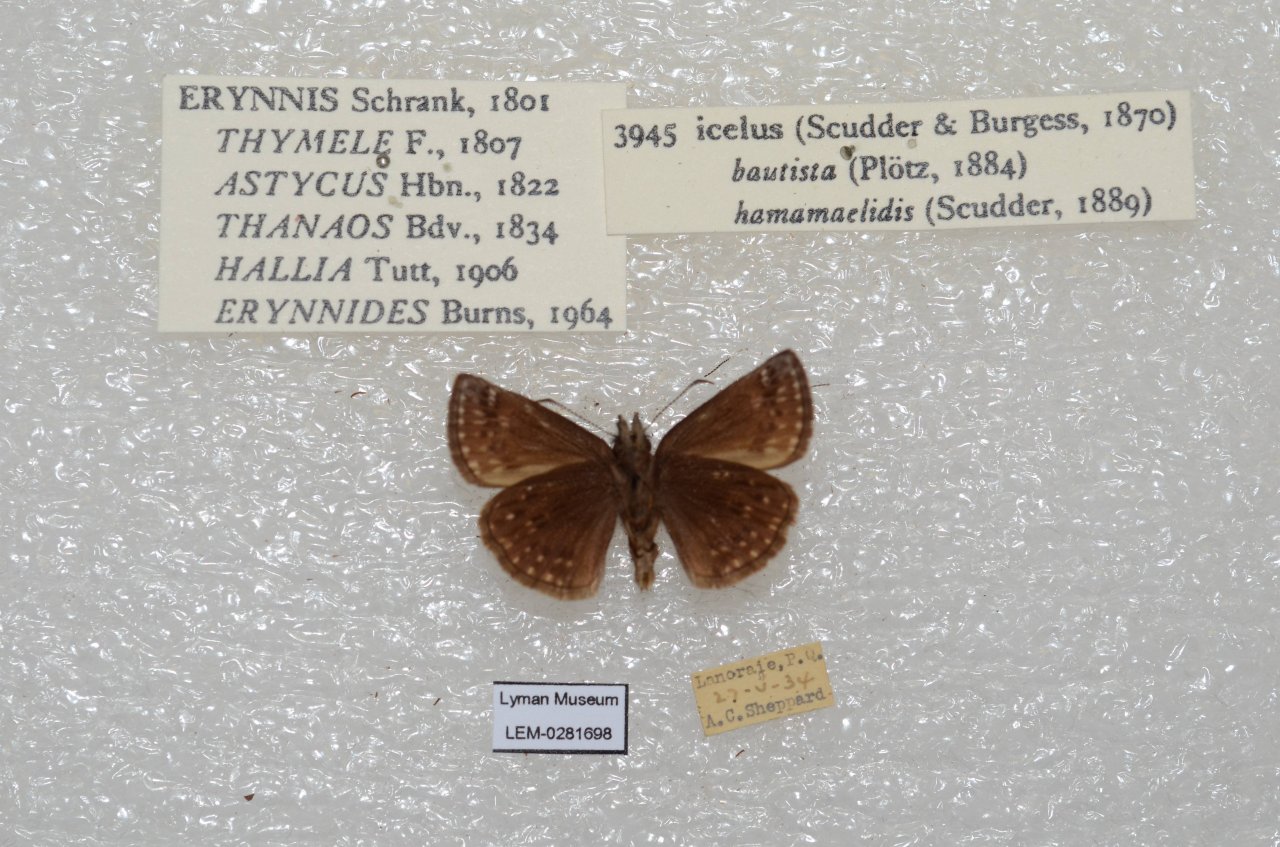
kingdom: Animalia
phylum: Arthropoda
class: Insecta
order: Lepidoptera
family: Hesperiidae
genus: Erynnis
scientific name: Erynnis icelus
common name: Dreamy Duskywing
